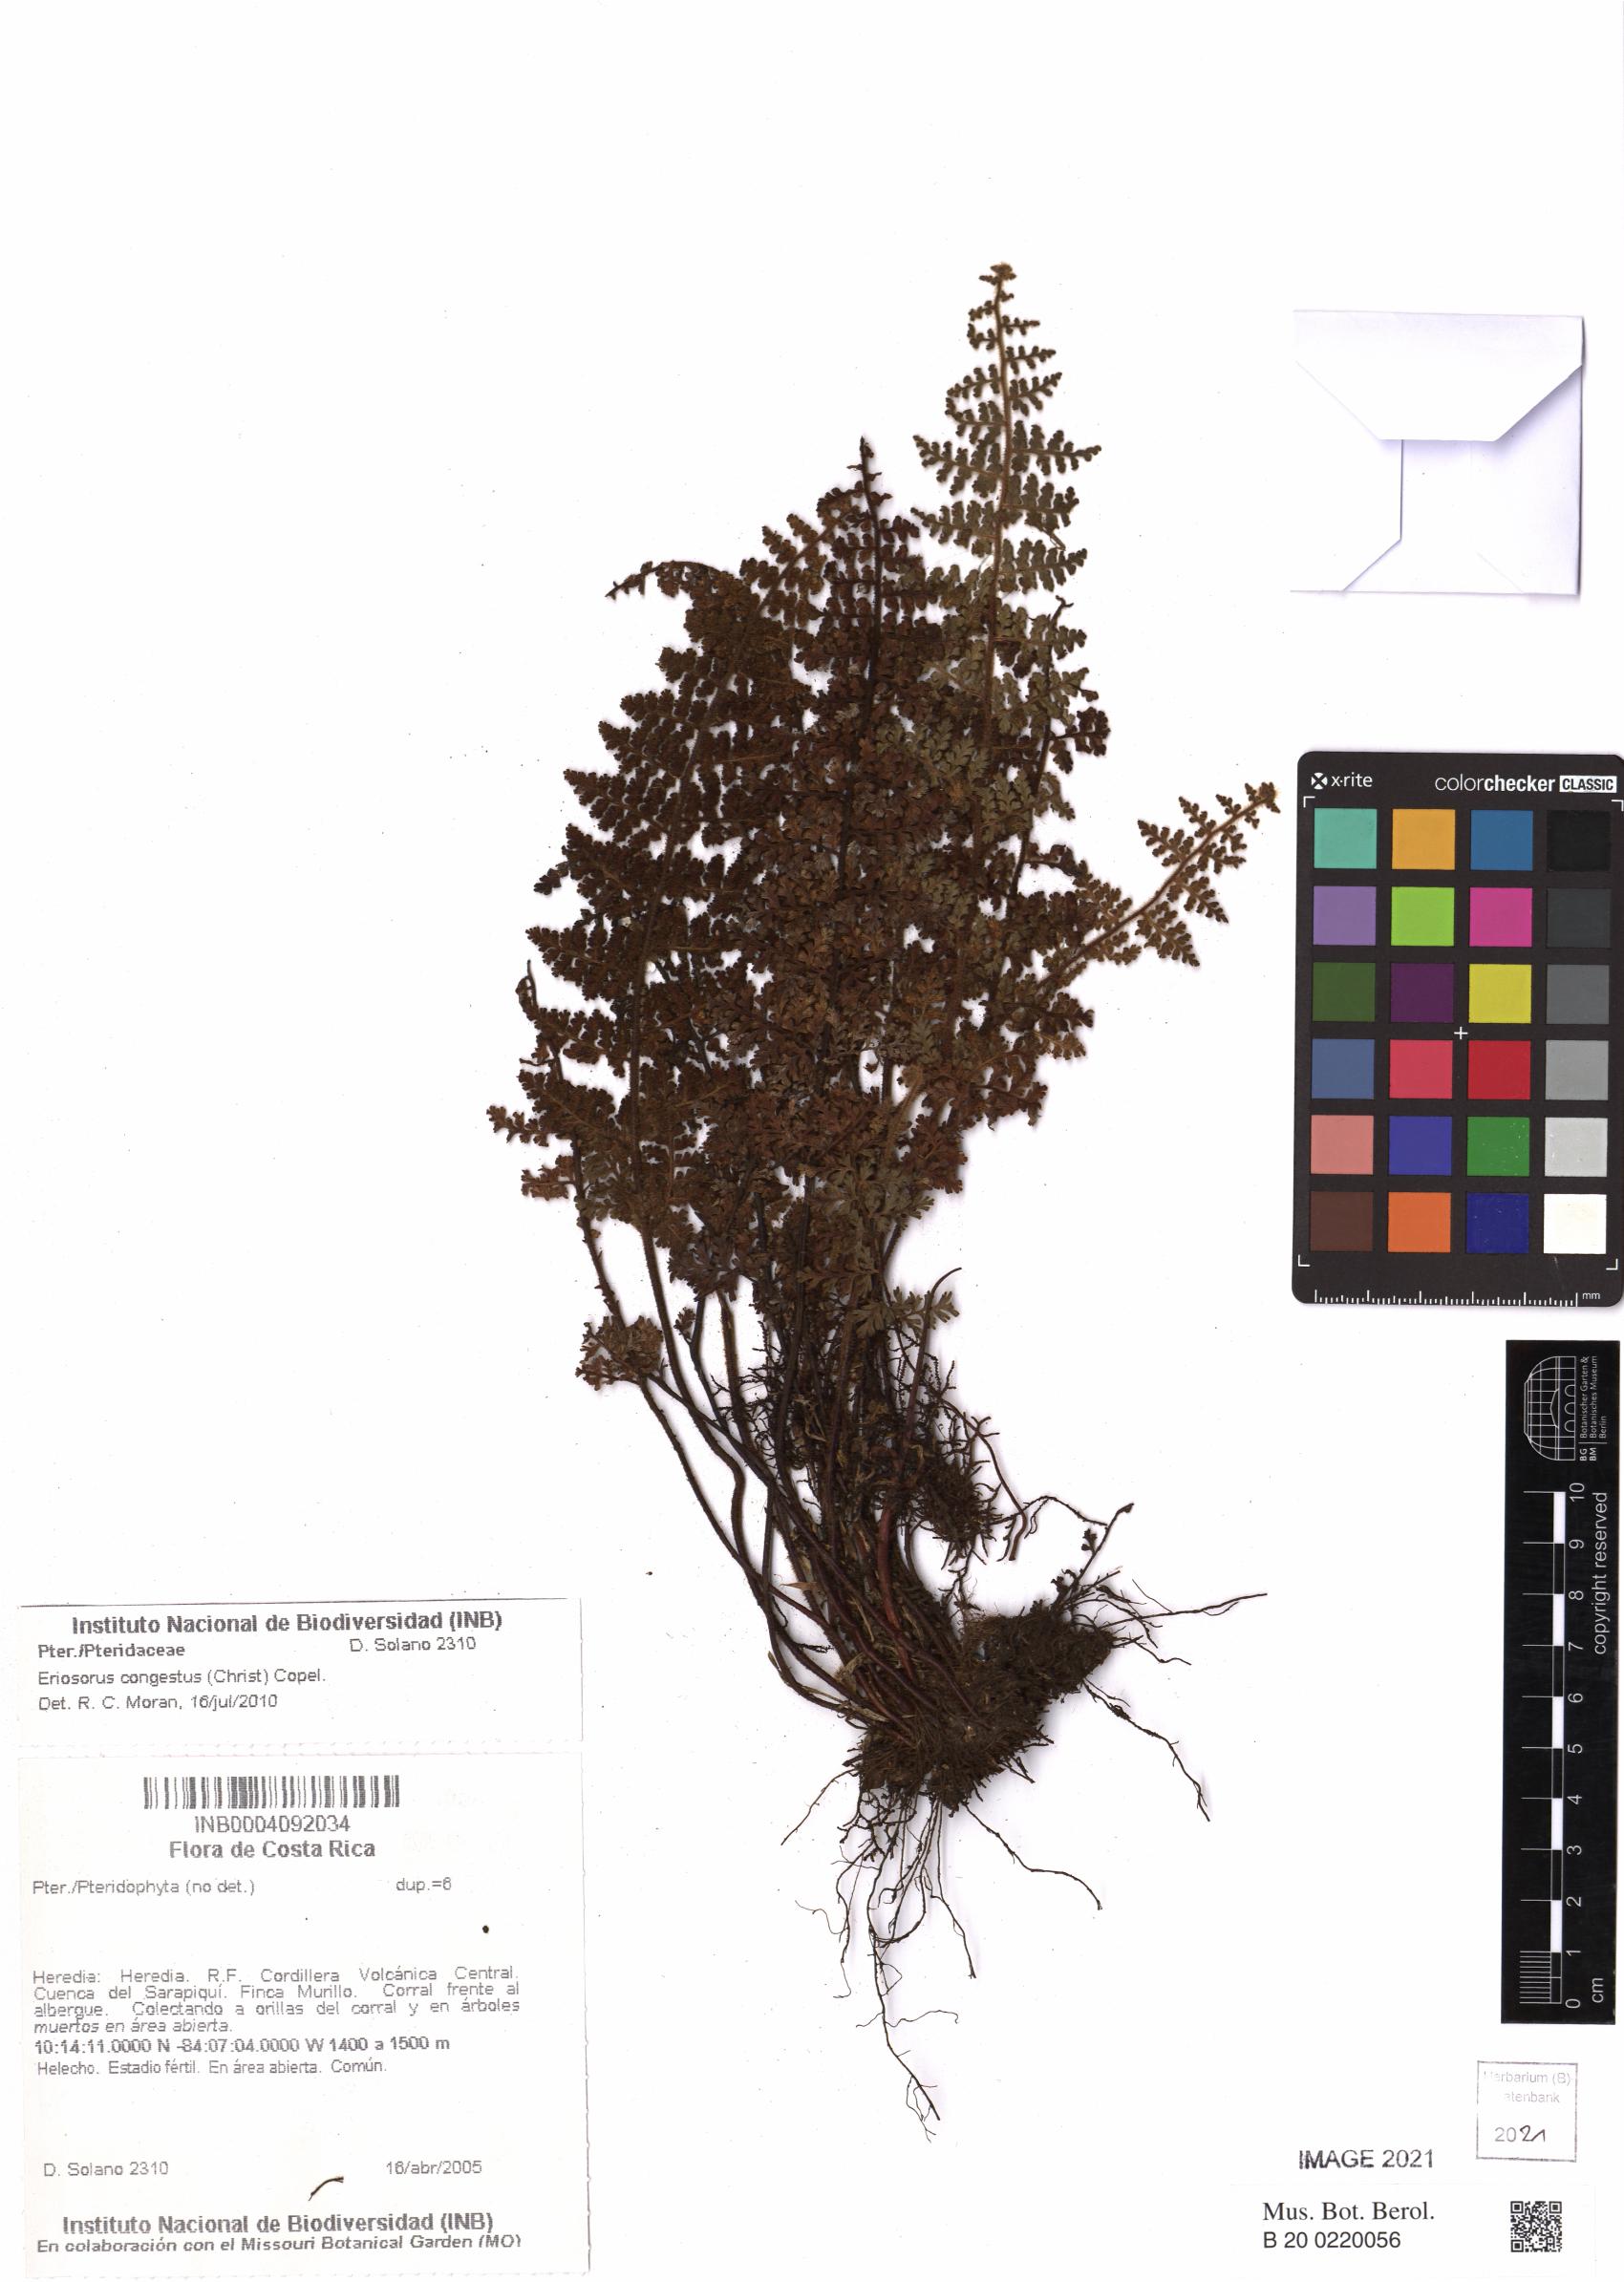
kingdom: Plantae
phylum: Tracheophyta
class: Polypodiopsida
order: Polypodiales
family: Pteridaceae
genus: Jamesonia
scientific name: Jamesonia congesta
